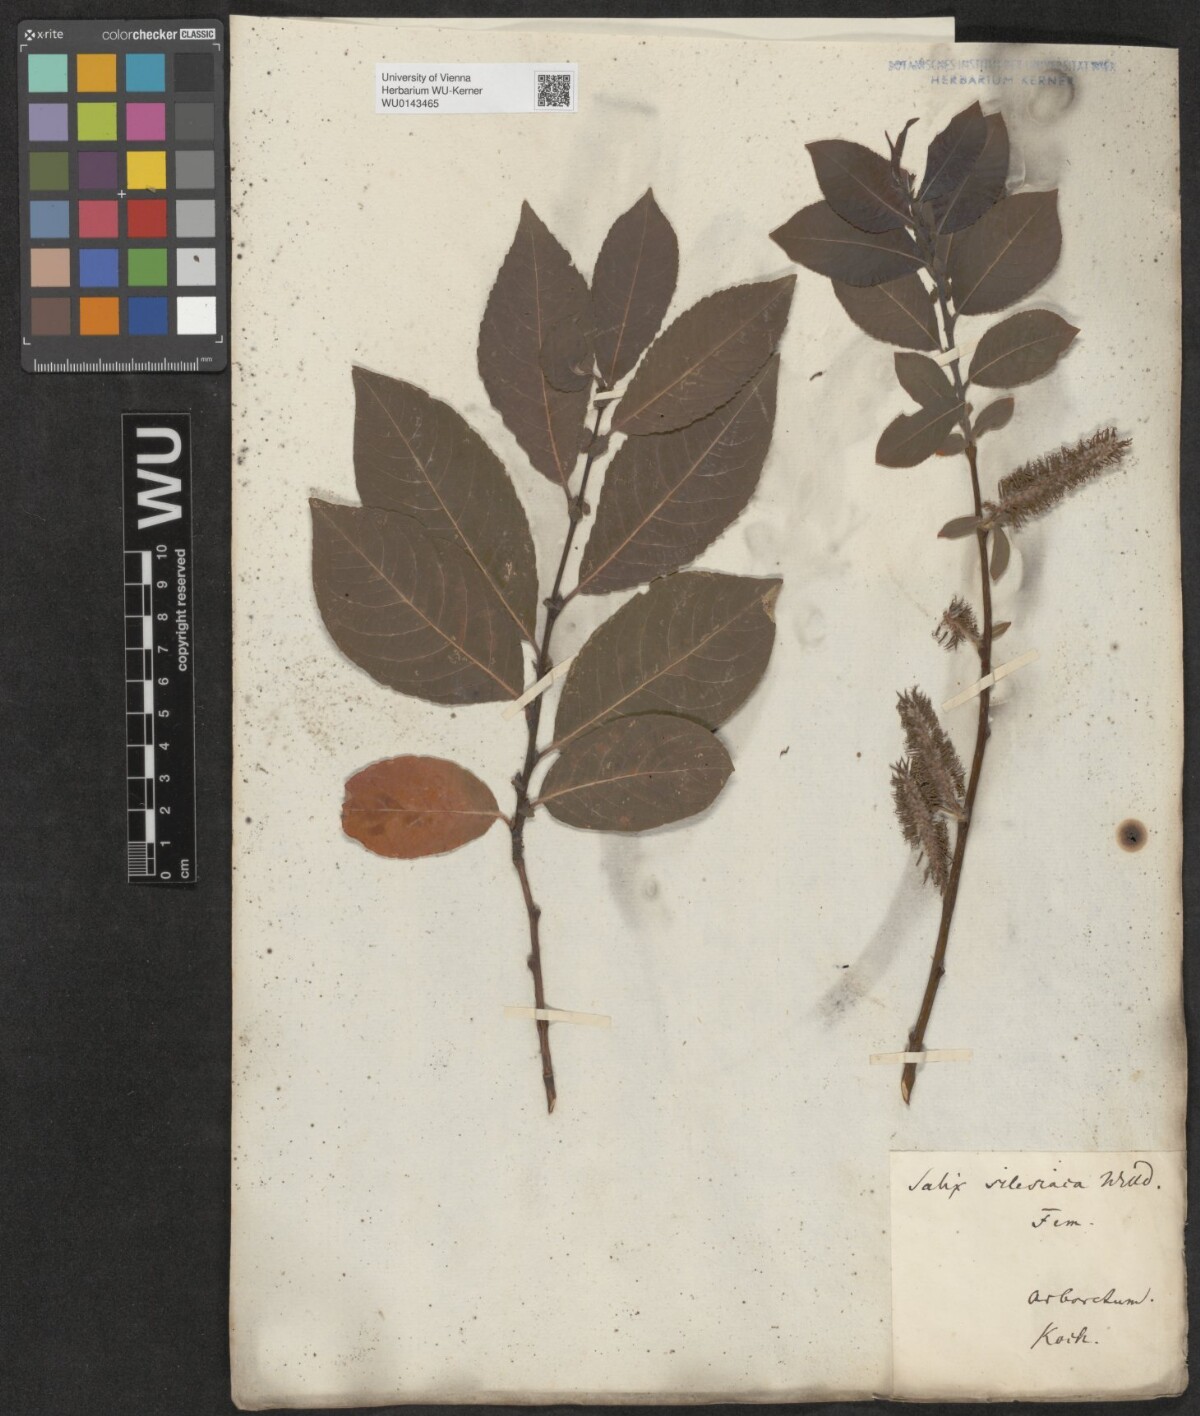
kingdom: Plantae
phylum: Tracheophyta
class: Magnoliopsida
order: Malpighiales
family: Salicaceae
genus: Salix
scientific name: Salix silesiaca
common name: Silesian willow
